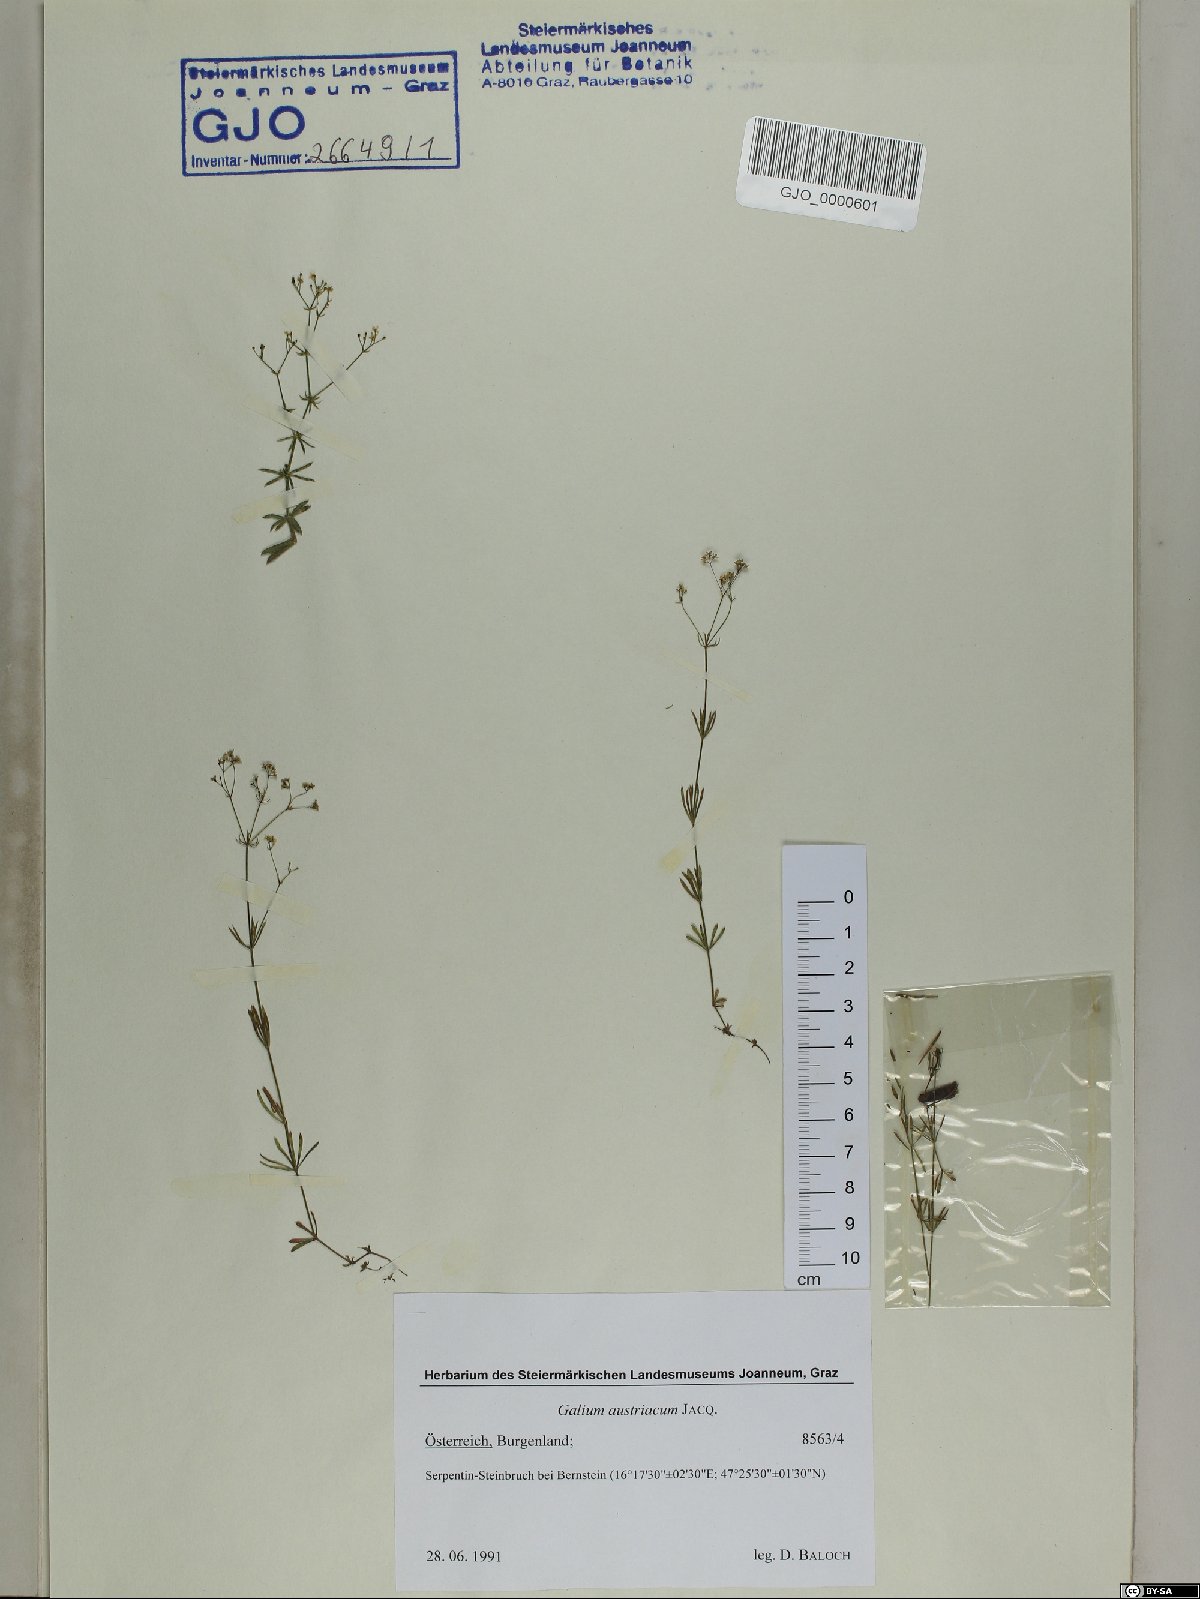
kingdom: Plantae
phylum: Tracheophyta
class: Magnoliopsida
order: Gentianales
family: Rubiaceae
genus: Galium
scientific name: Galium austriacum
